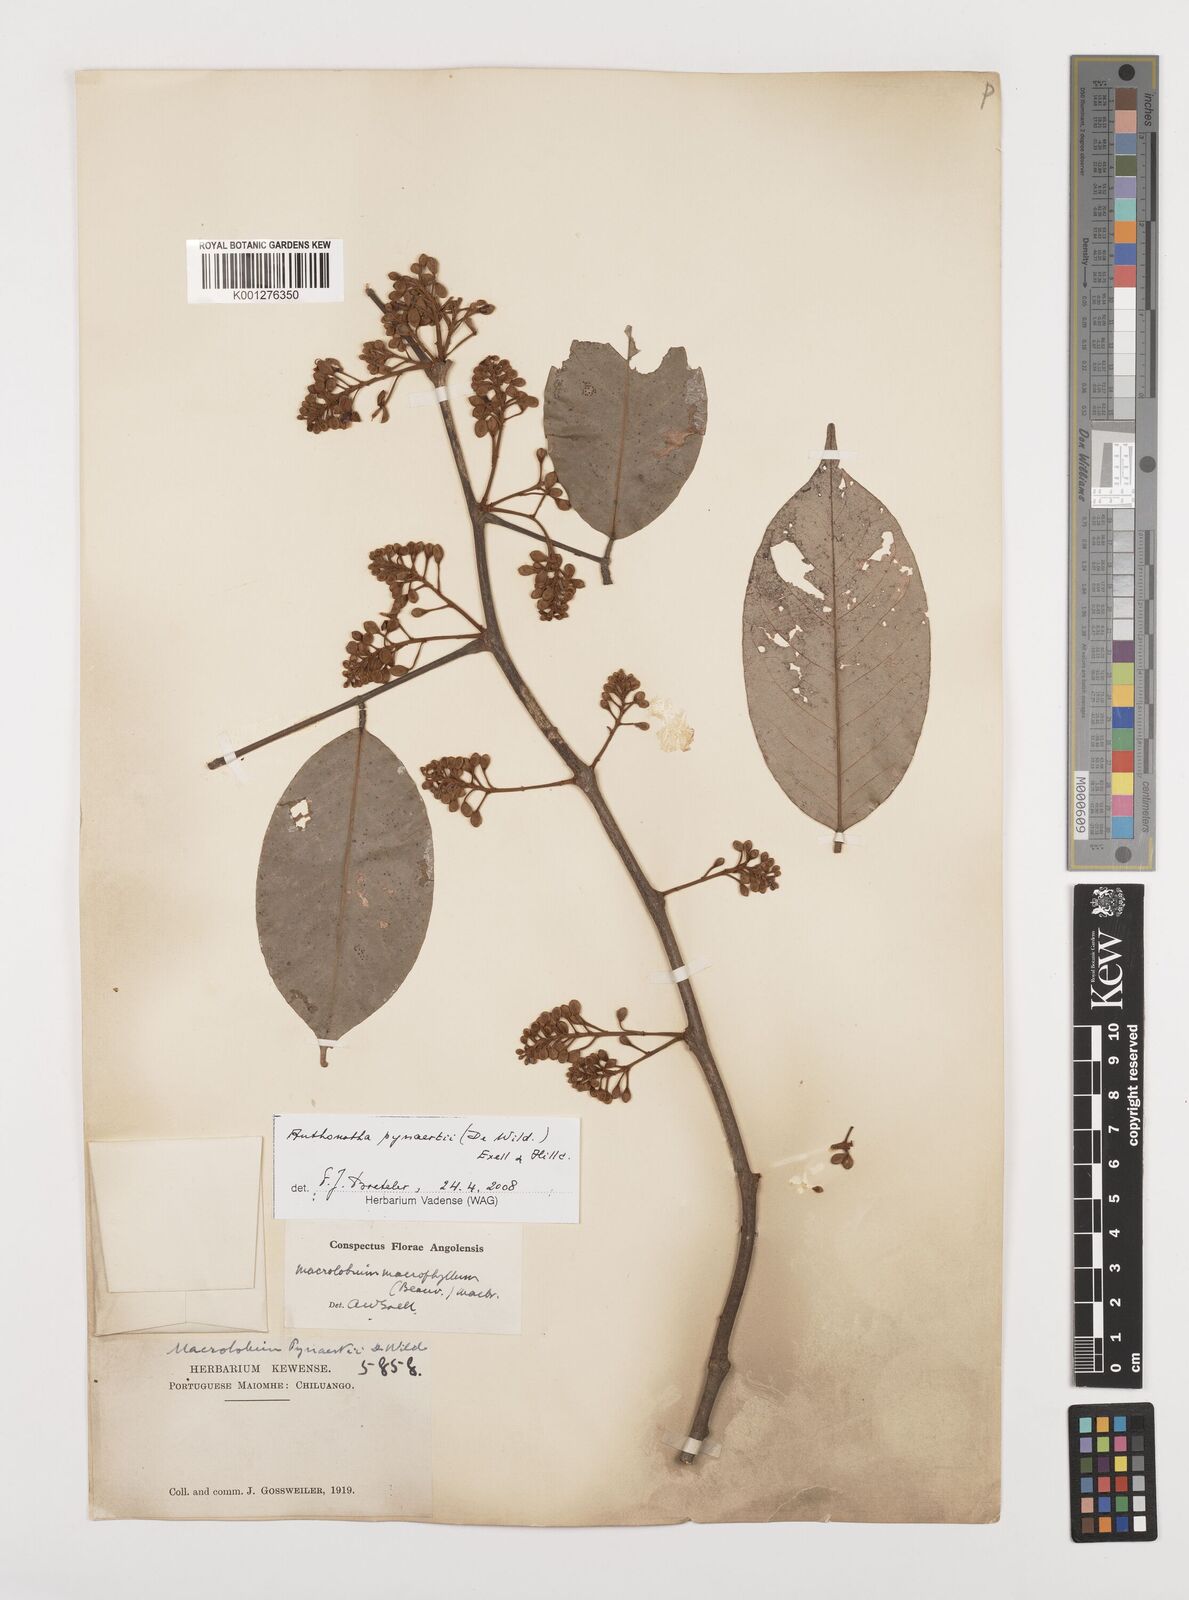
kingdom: Plantae
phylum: Tracheophyta
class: Magnoliopsida
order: Fabales
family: Fabaceae
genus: Anthonotha
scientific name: Anthonotha pynaertii
